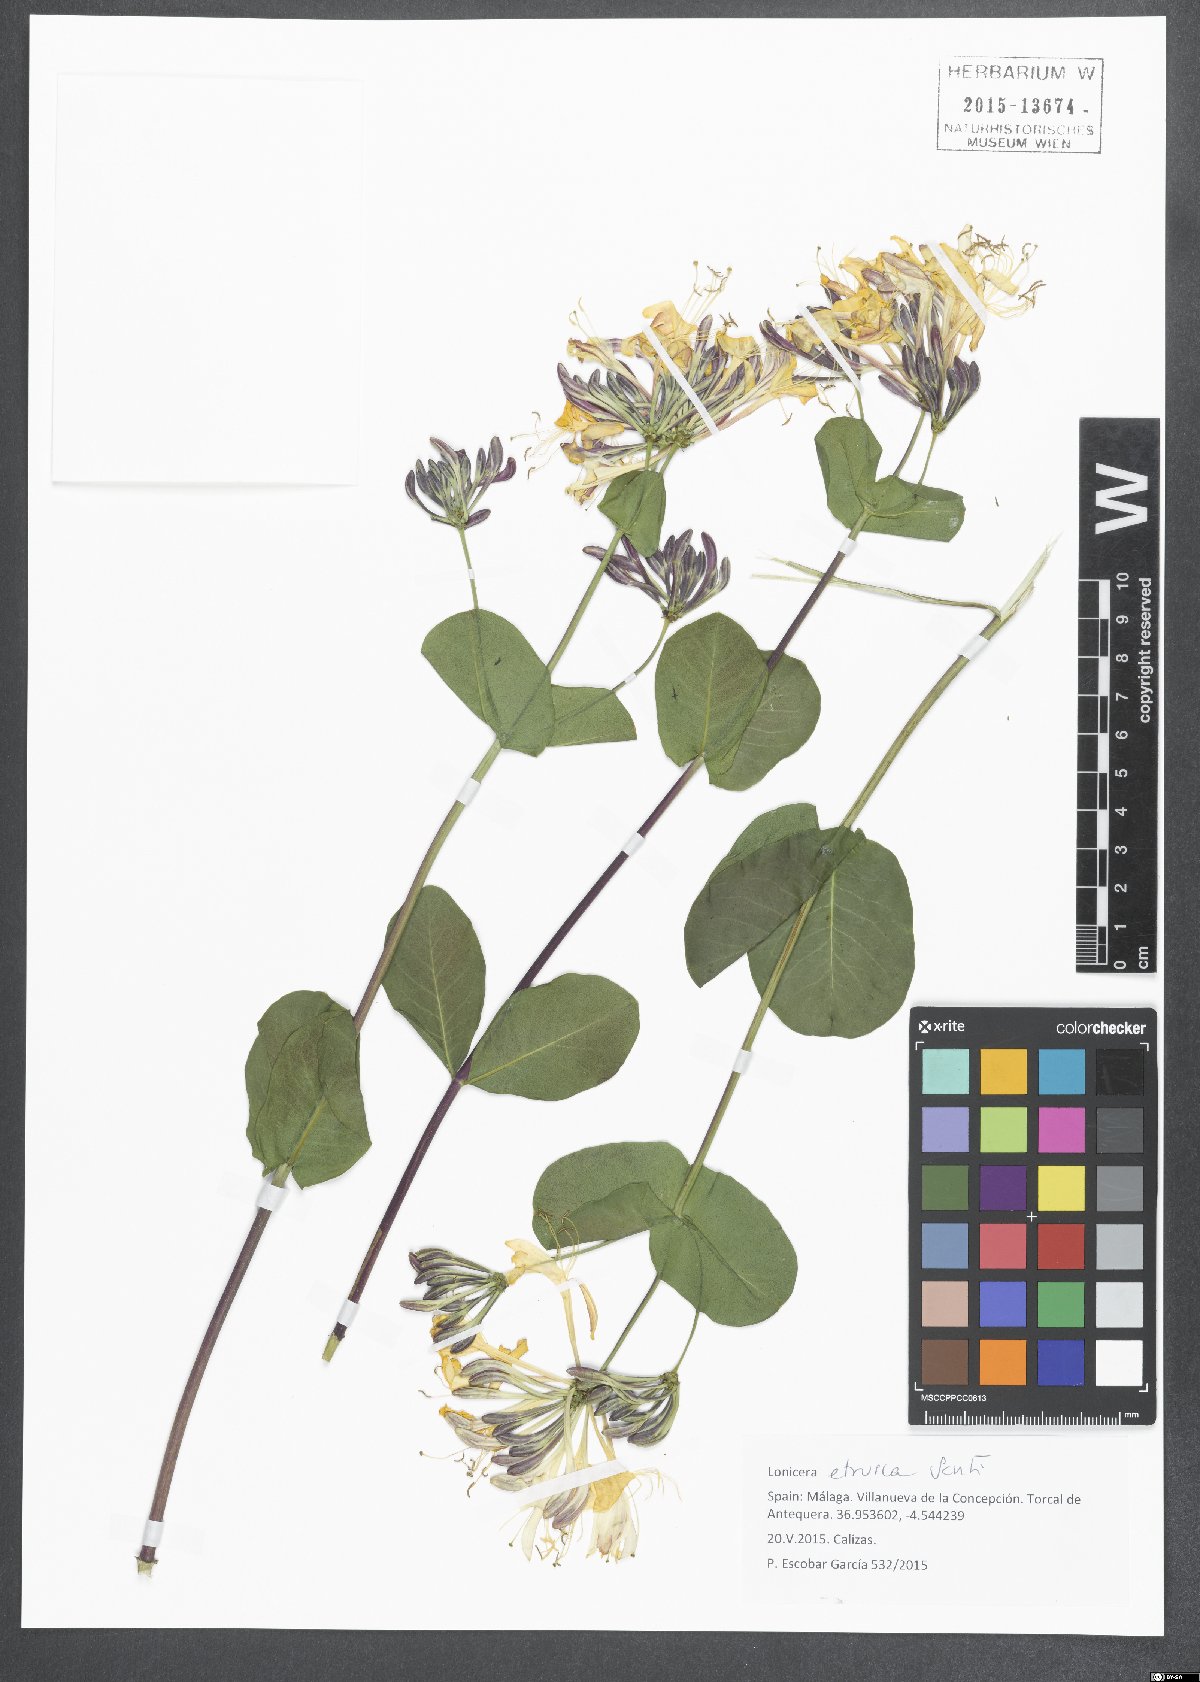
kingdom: Plantae
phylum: Tracheophyta
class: Magnoliopsida
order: Dipsacales
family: Caprifoliaceae
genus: Lonicera
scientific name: Lonicera etrusca
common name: Etruscan honeysuckle
